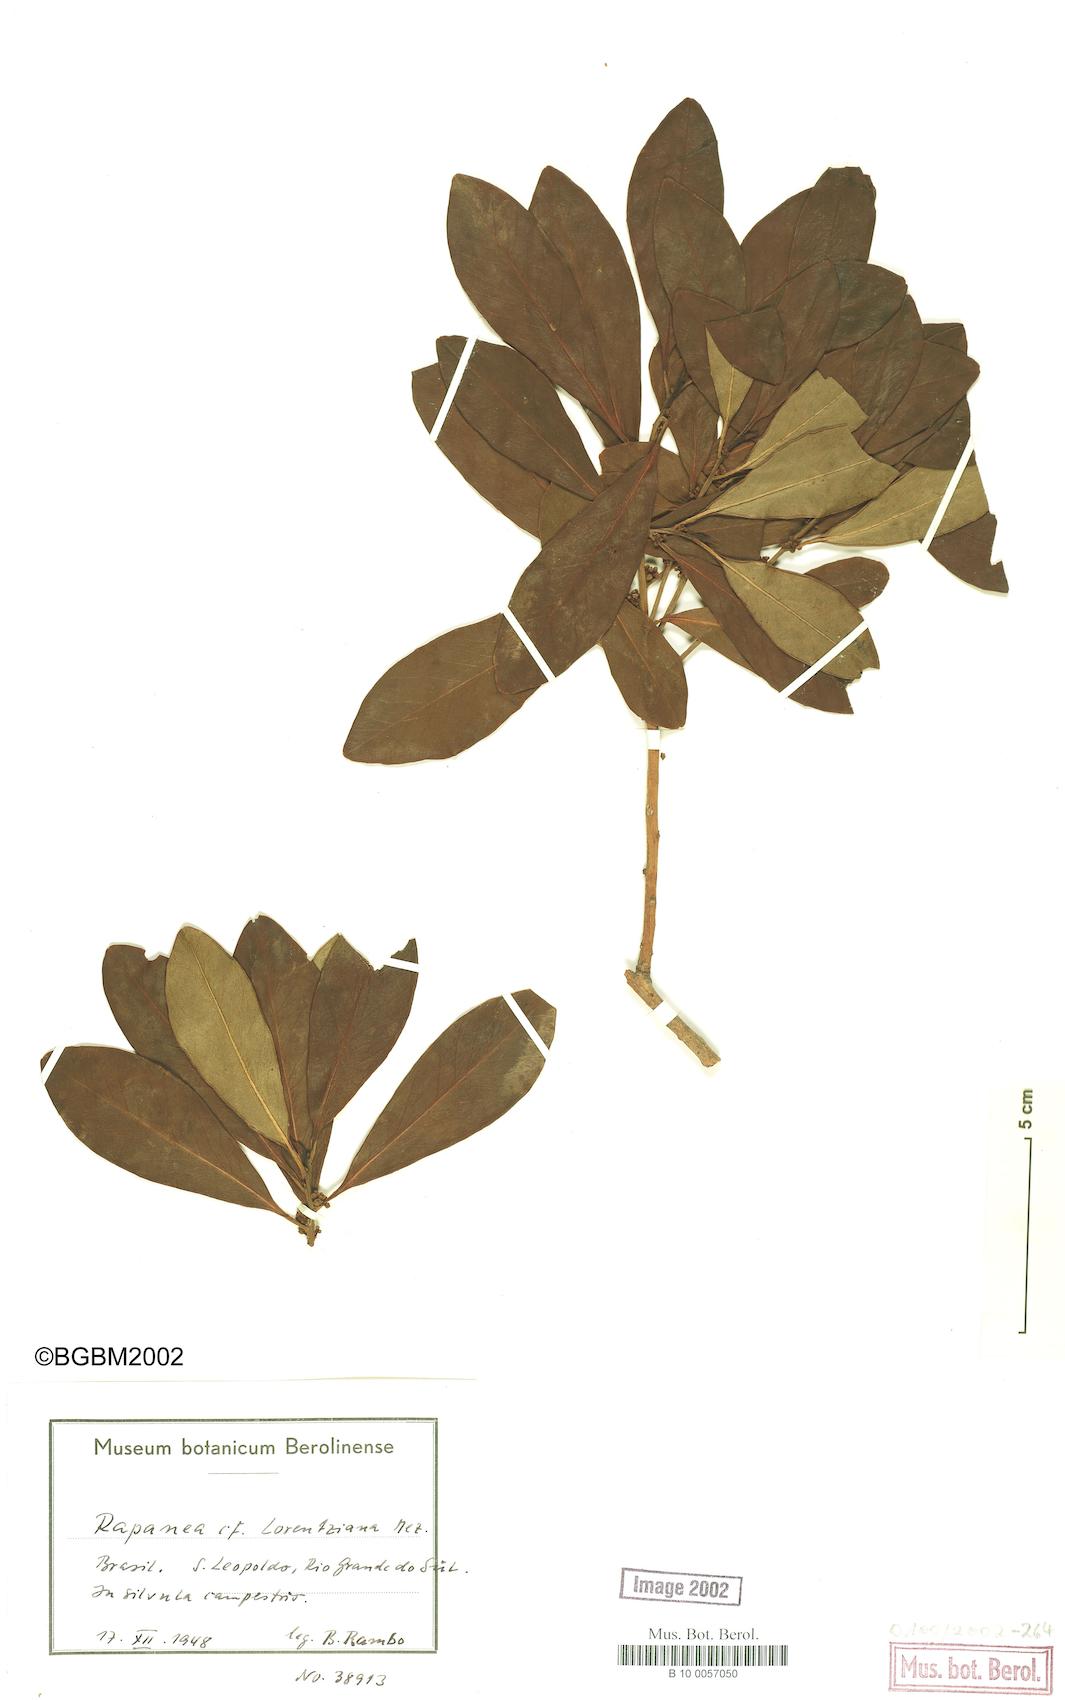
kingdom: Plantae
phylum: Tracheophyta
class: Magnoliopsida
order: Ericales
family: Primulaceae
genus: Myrsine
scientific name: Myrsine lorentziana
